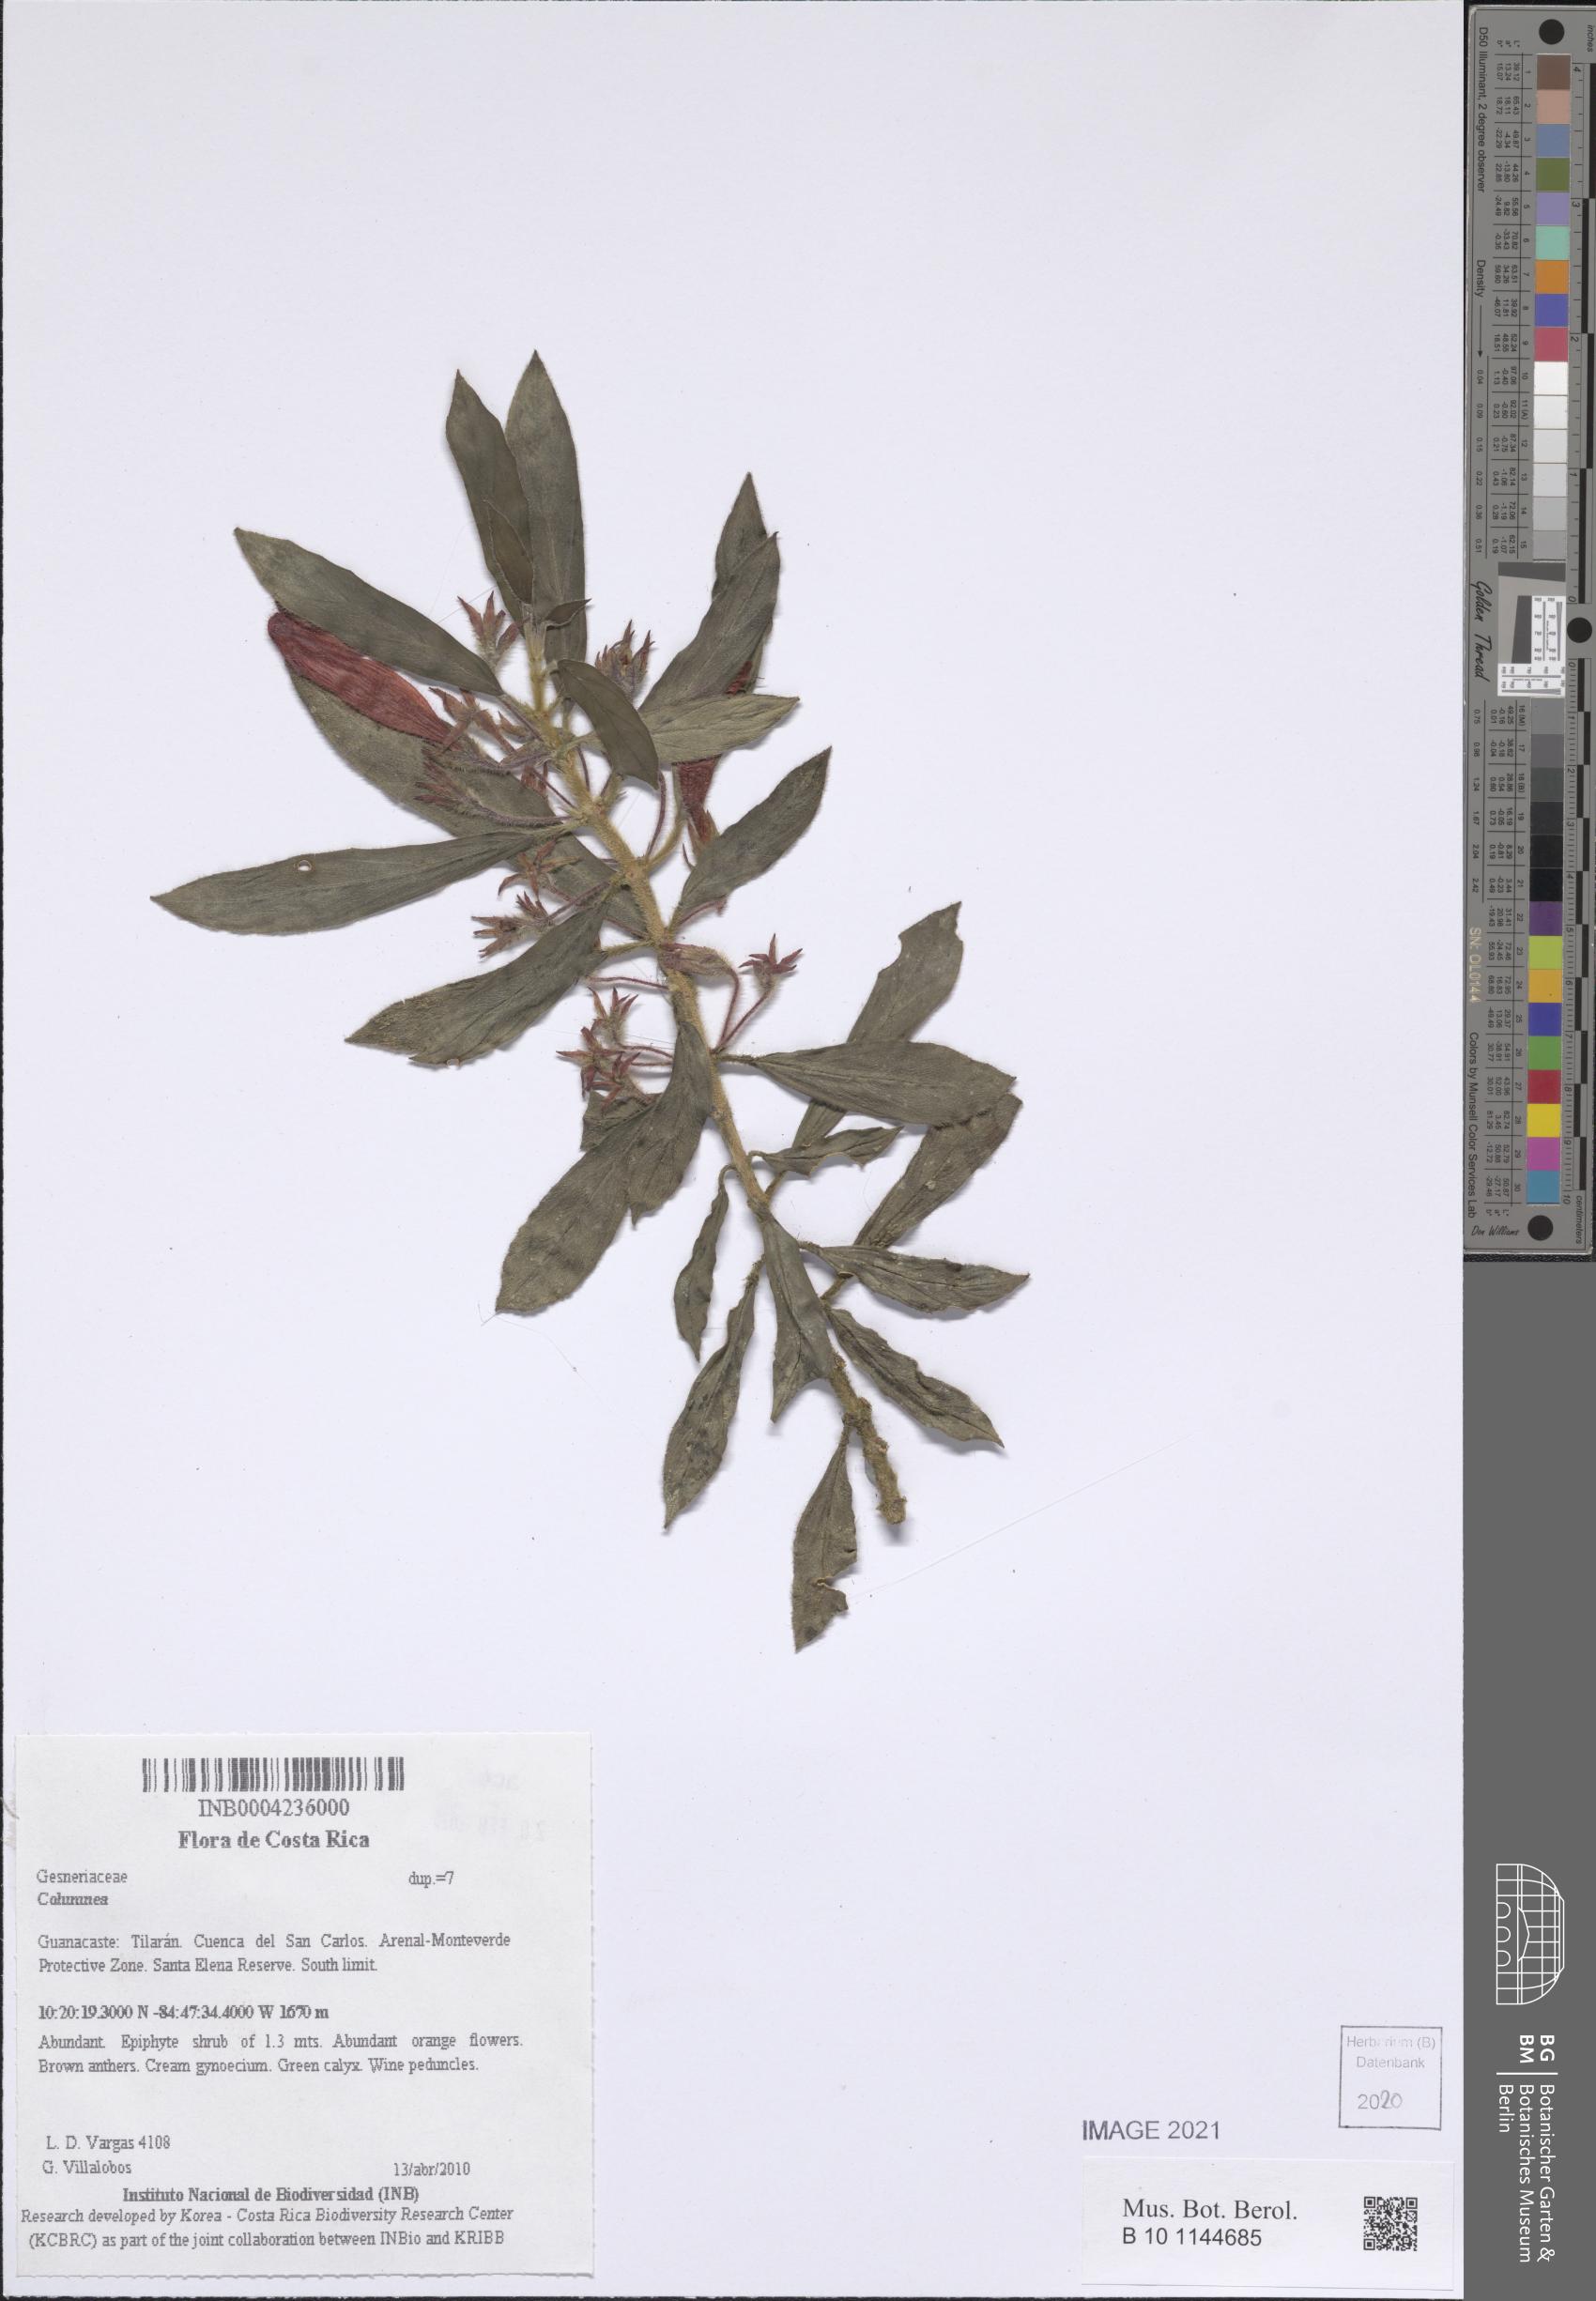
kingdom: Plantae
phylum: Tracheophyta
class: Magnoliopsida
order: Lamiales
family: Gesneriaceae
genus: Columnea
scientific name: Columnea
